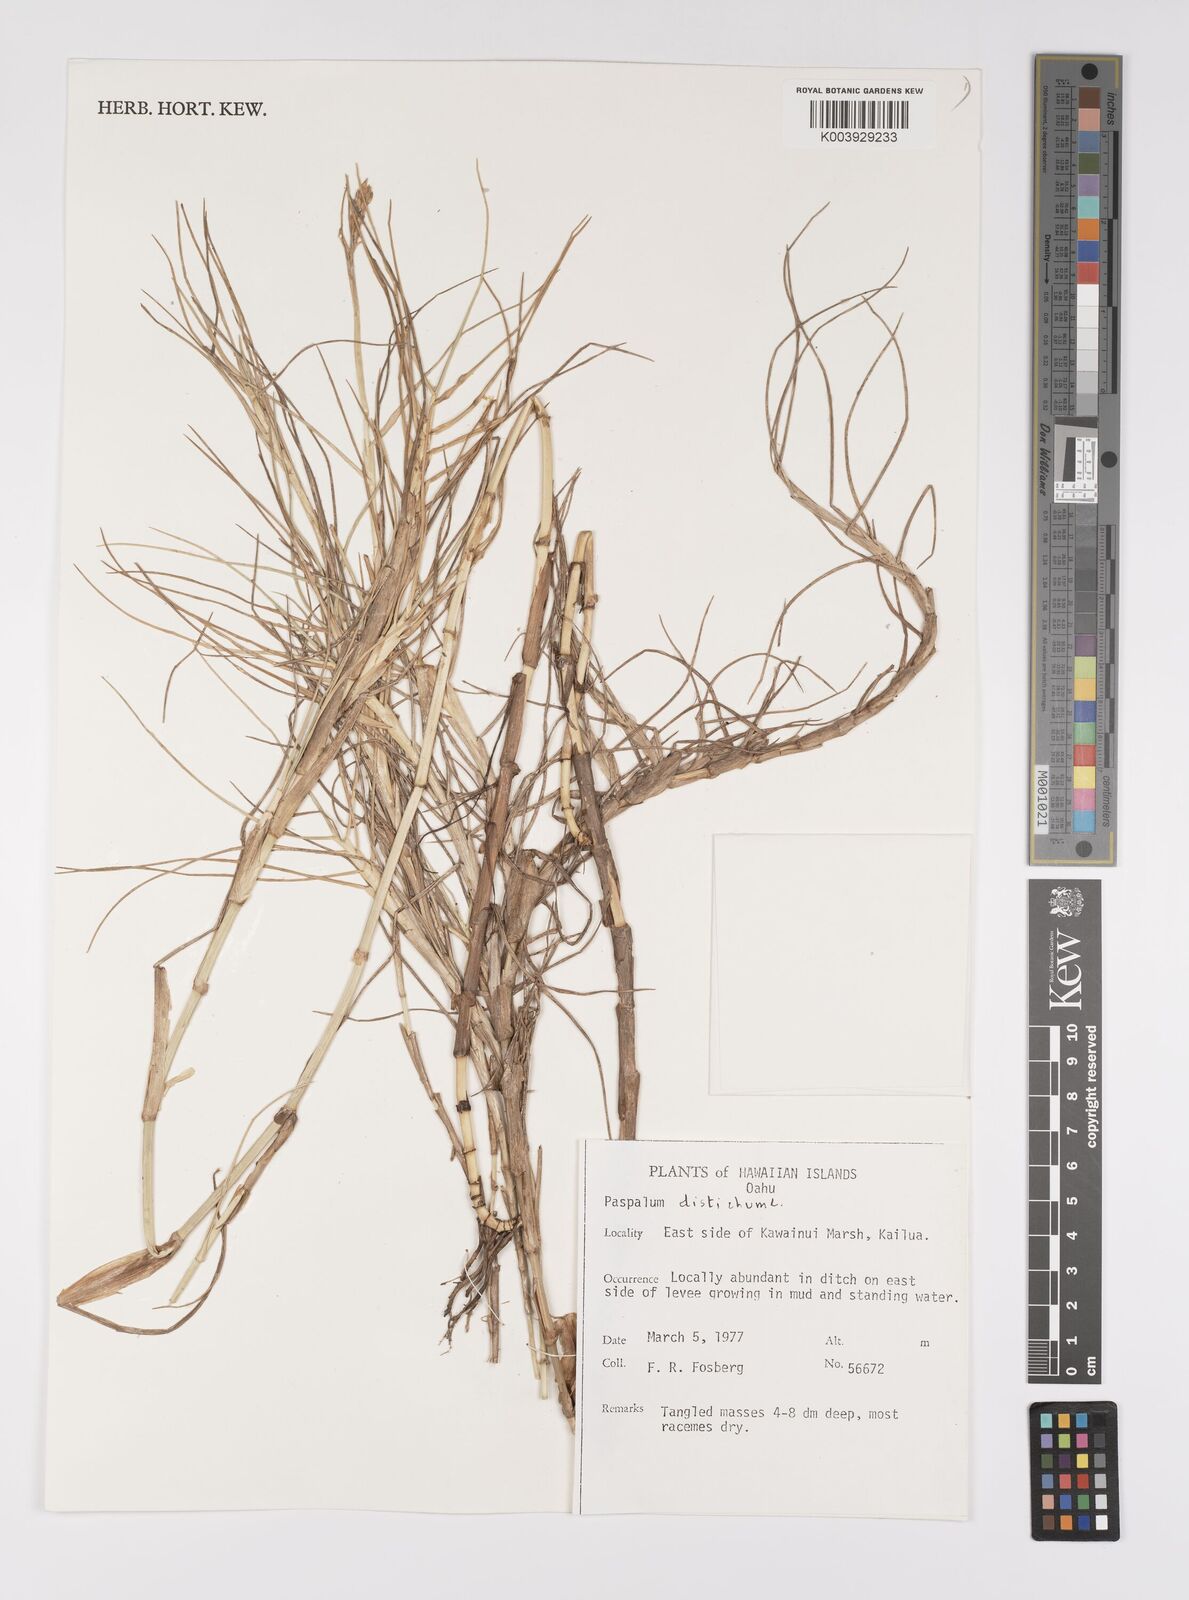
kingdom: Plantae
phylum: Tracheophyta
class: Liliopsida
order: Poales
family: Poaceae
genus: Paspalum
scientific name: Paspalum vaginatum
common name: Seashore paspalum
